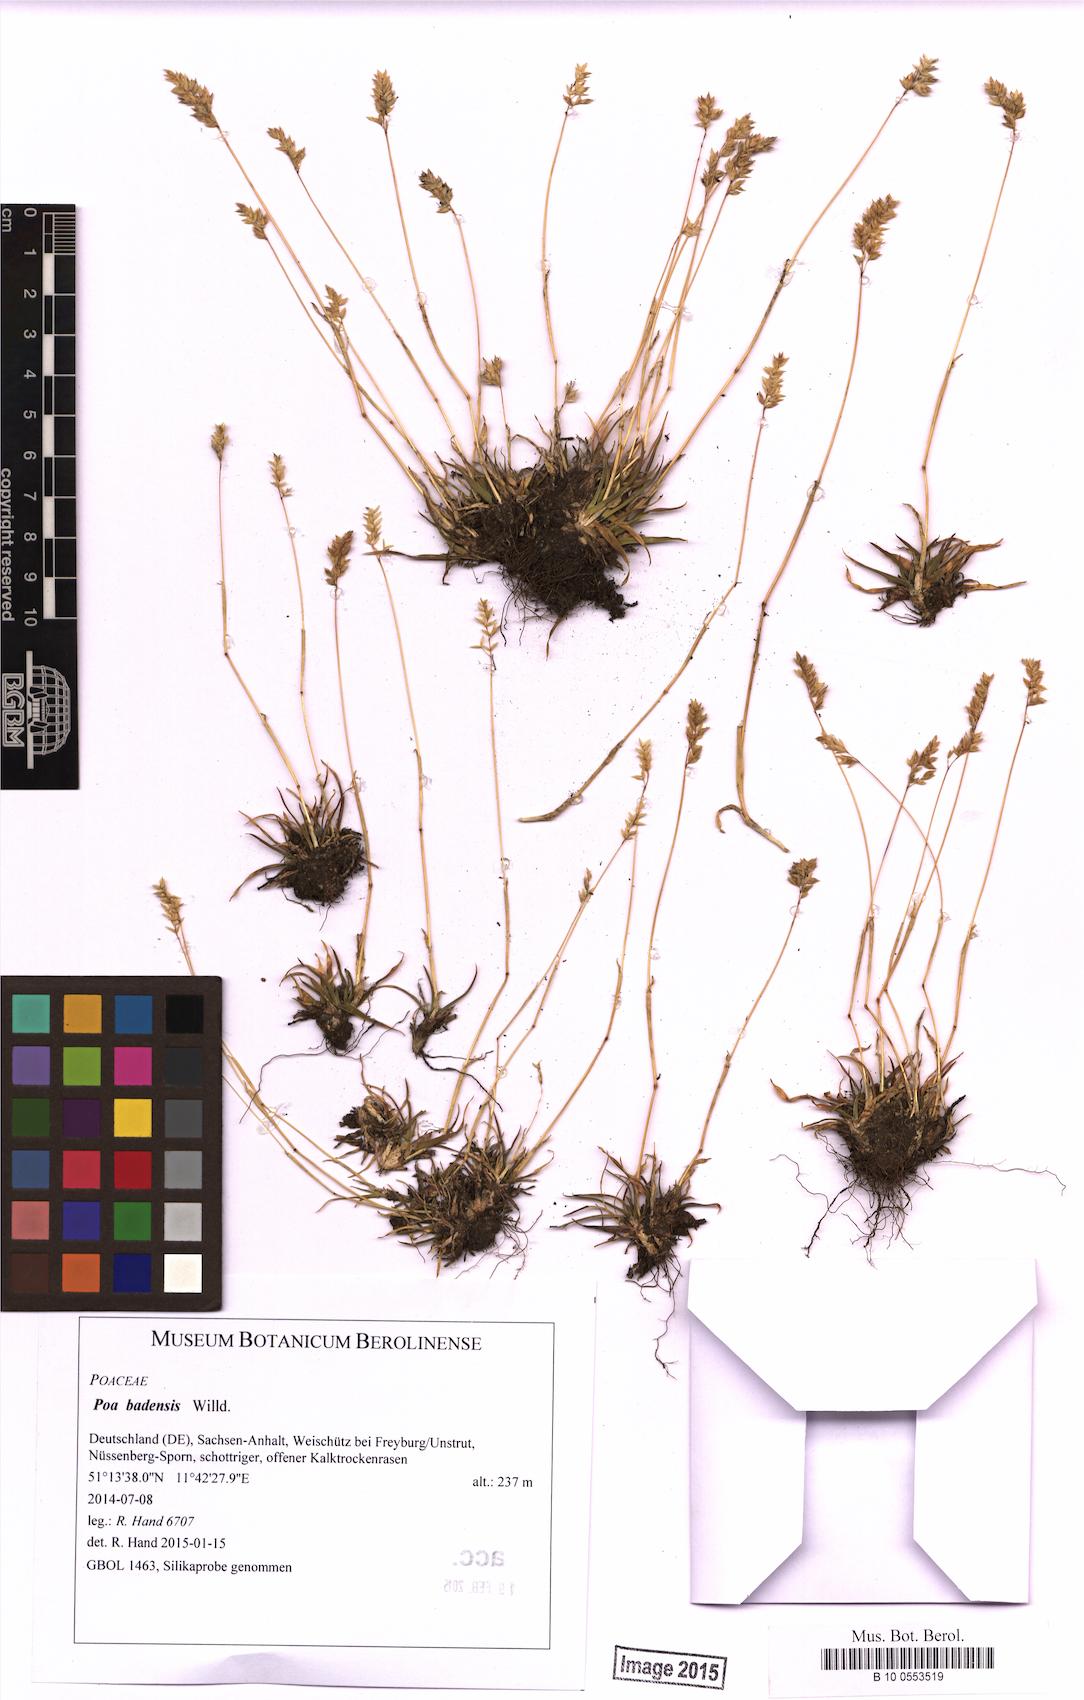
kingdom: Plantae
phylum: Tracheophyta
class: Liliopsida
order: Poales
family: Poaceae
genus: Poa
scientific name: Poa badensis
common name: Baden's bluegrass
